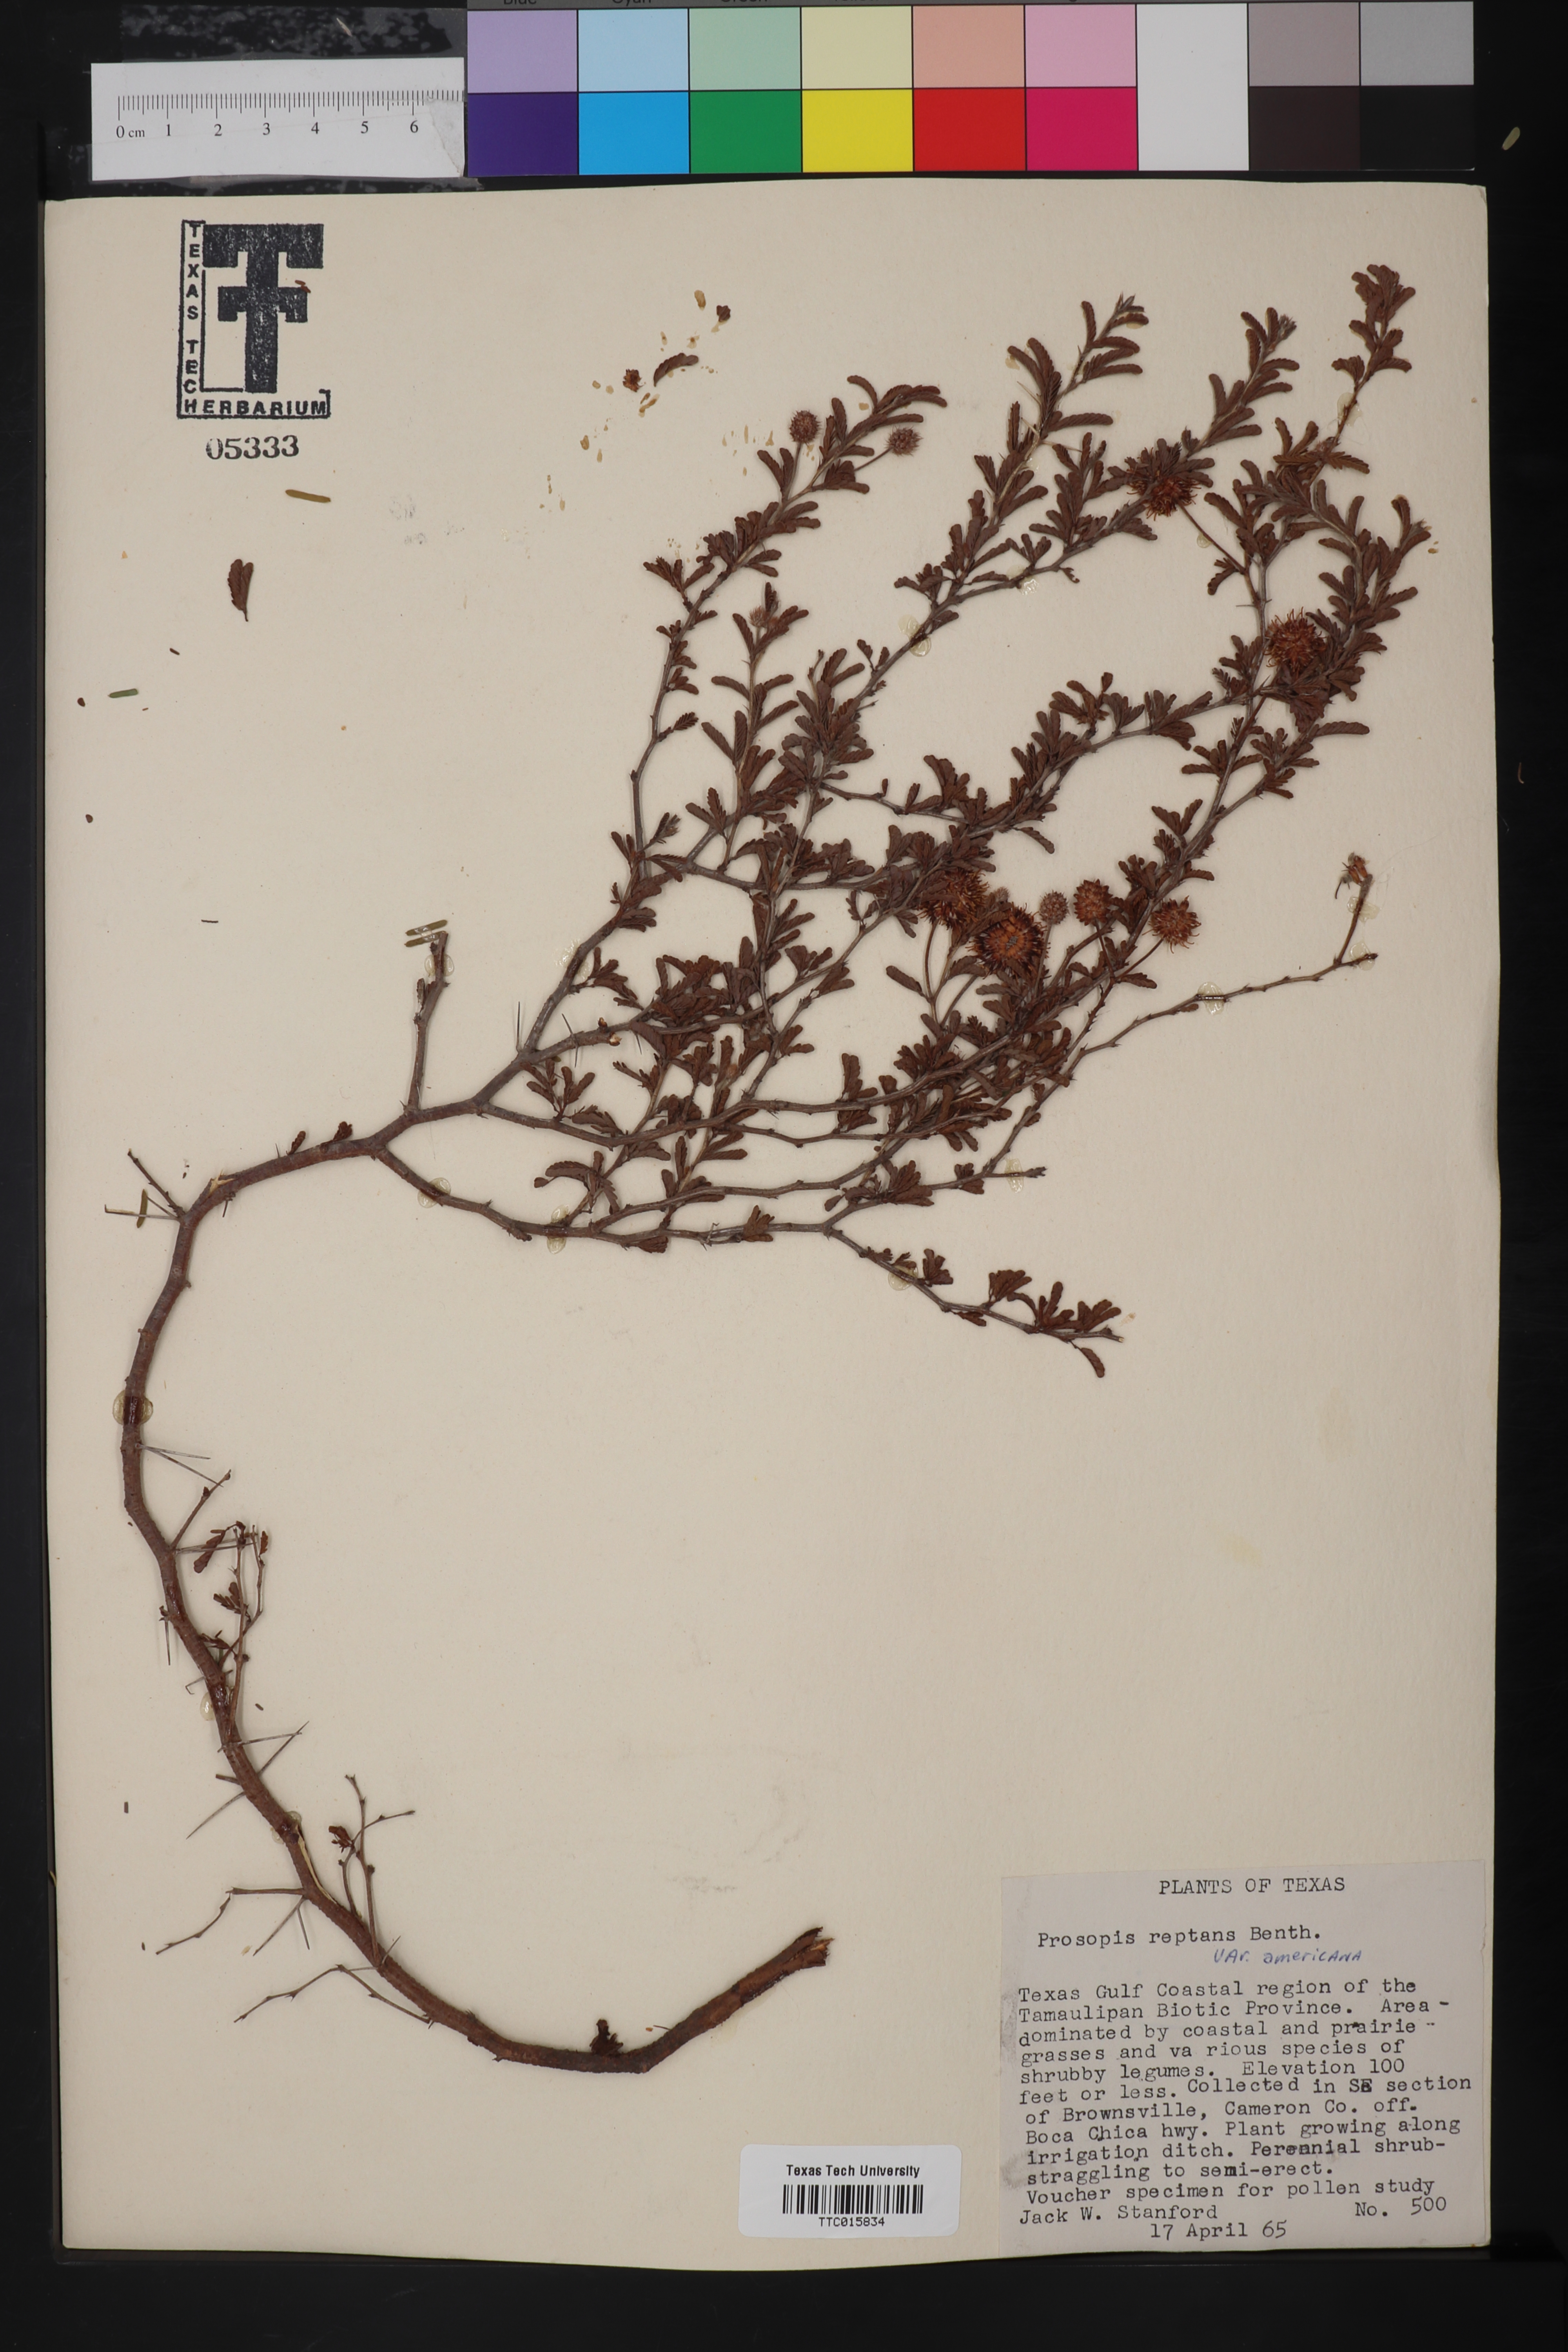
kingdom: Plantae
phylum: Tracheophyta
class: Magnoliopsida
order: Fabales
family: Fabaceae
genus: Prosopis
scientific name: Prosopis reptans
